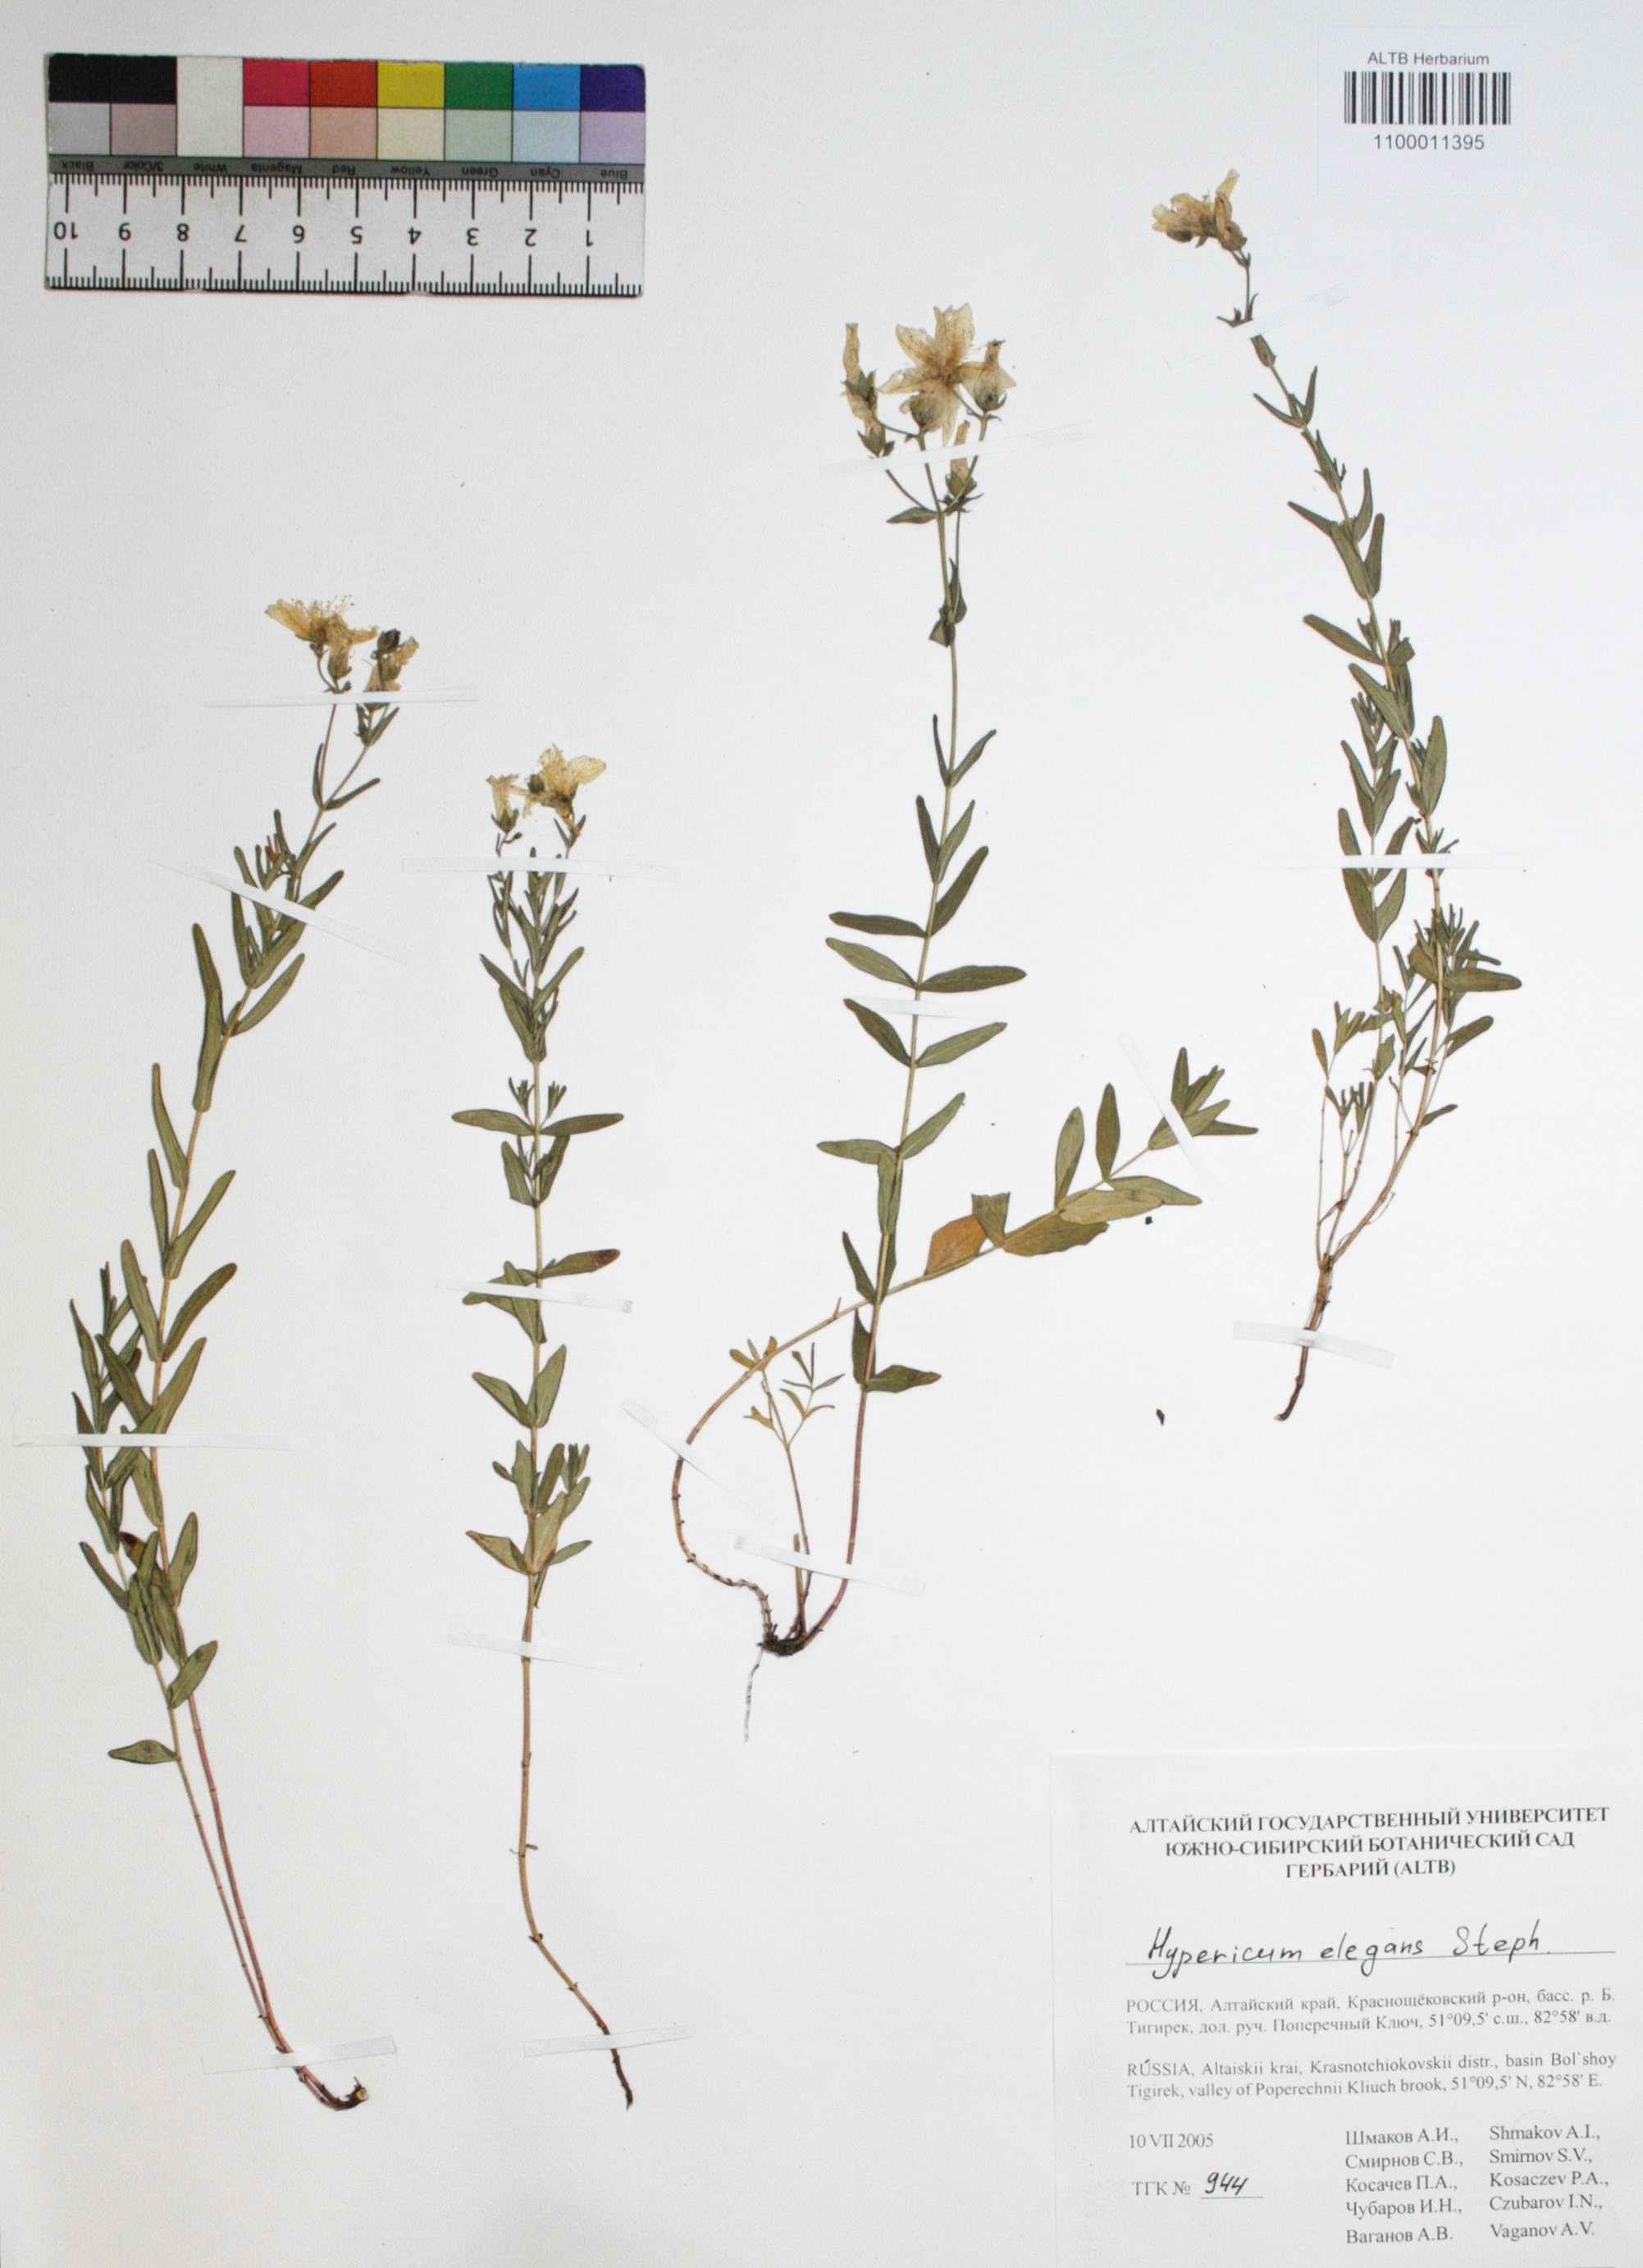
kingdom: Plantae
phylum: Tracheophyta
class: Magnoliopsida
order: Malpighiales
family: Hypericaceae
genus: Hypericum
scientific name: Hypericum elegans
